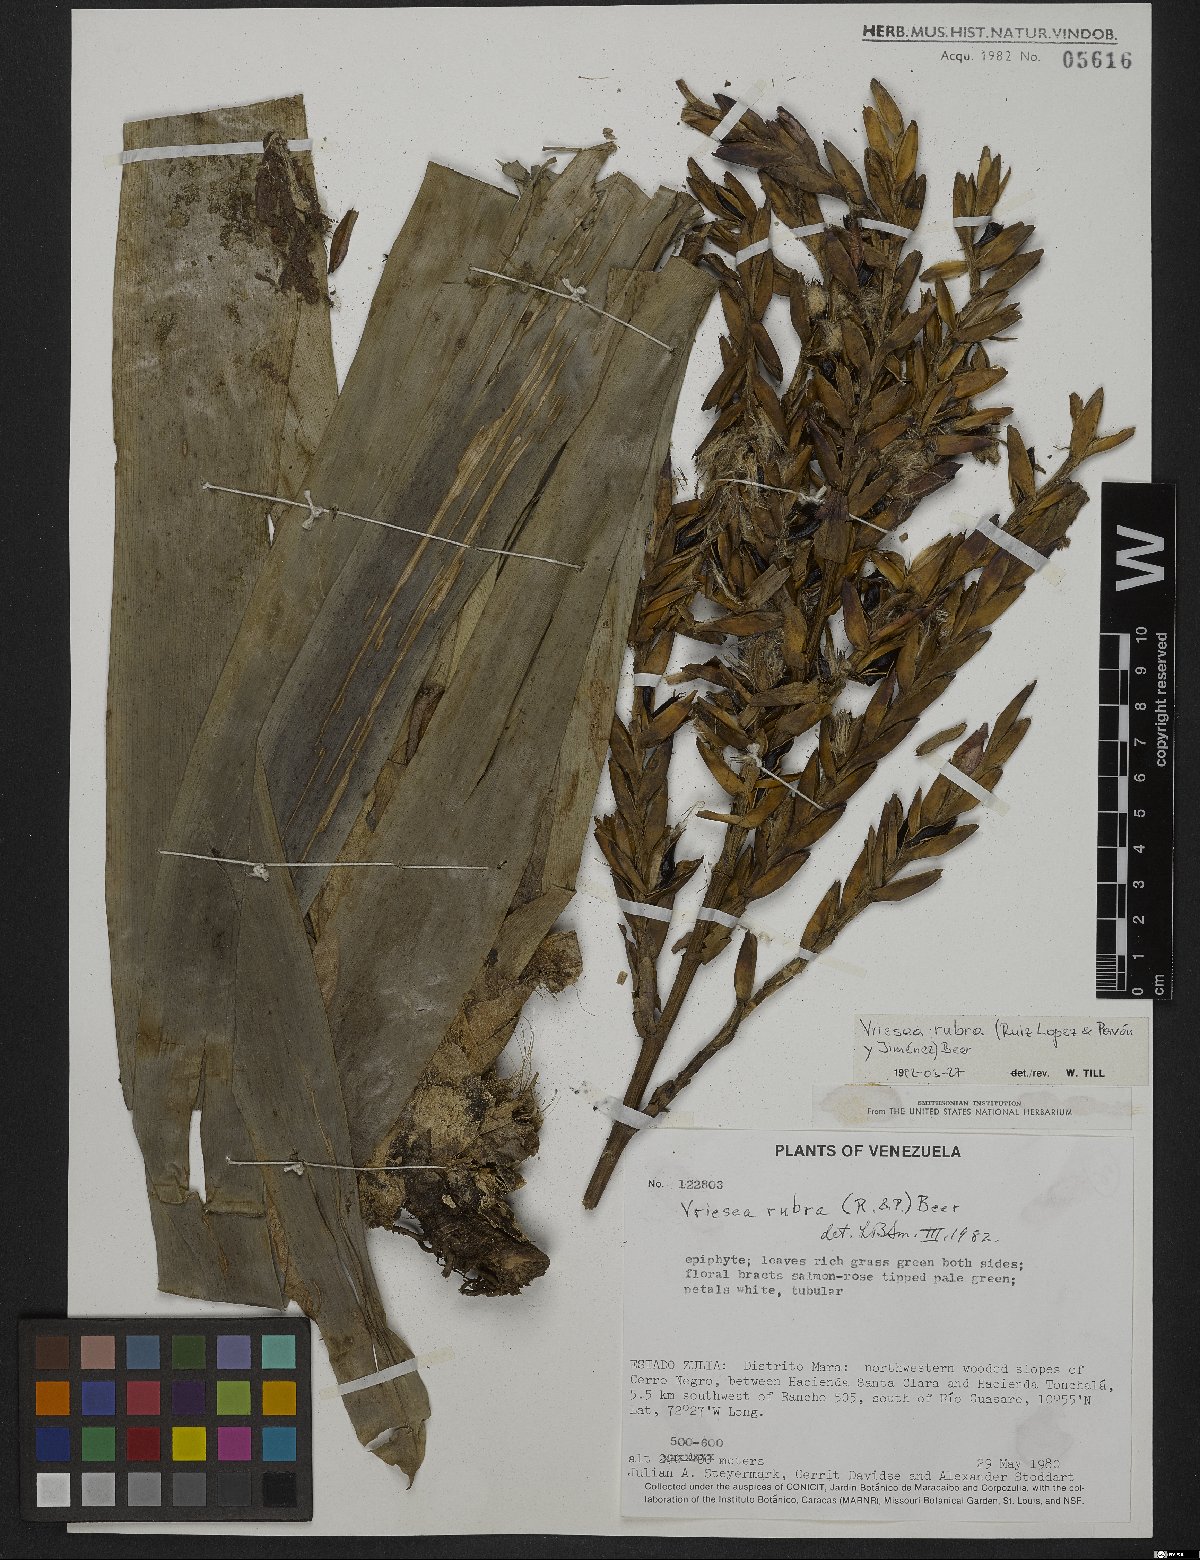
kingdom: Plantae
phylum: Tracheophyta
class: Liliopsida
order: Poales
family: Bromeliaceae
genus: Vriesea
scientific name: Vriesea rubra
